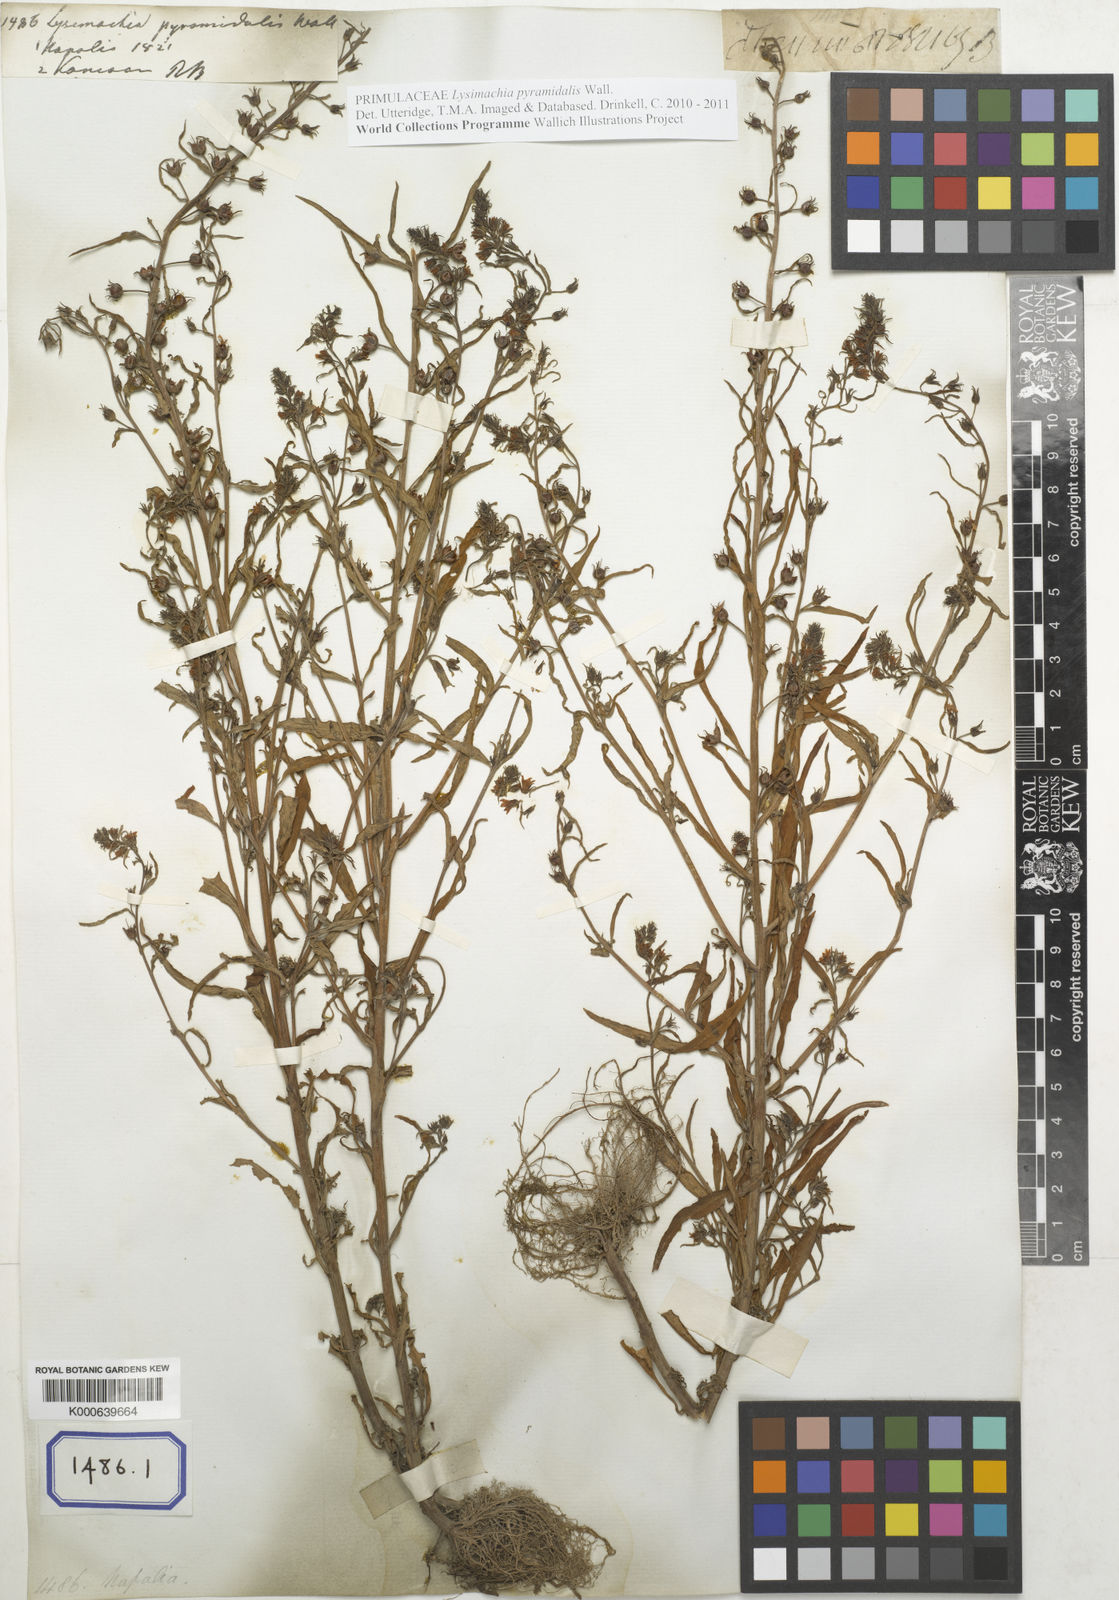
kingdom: Plantae
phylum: Tracheophyta
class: Magnoliopsida
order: Ericales
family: Primulaceae
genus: Lysimachia
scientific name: Lysimachia pyramidalis
